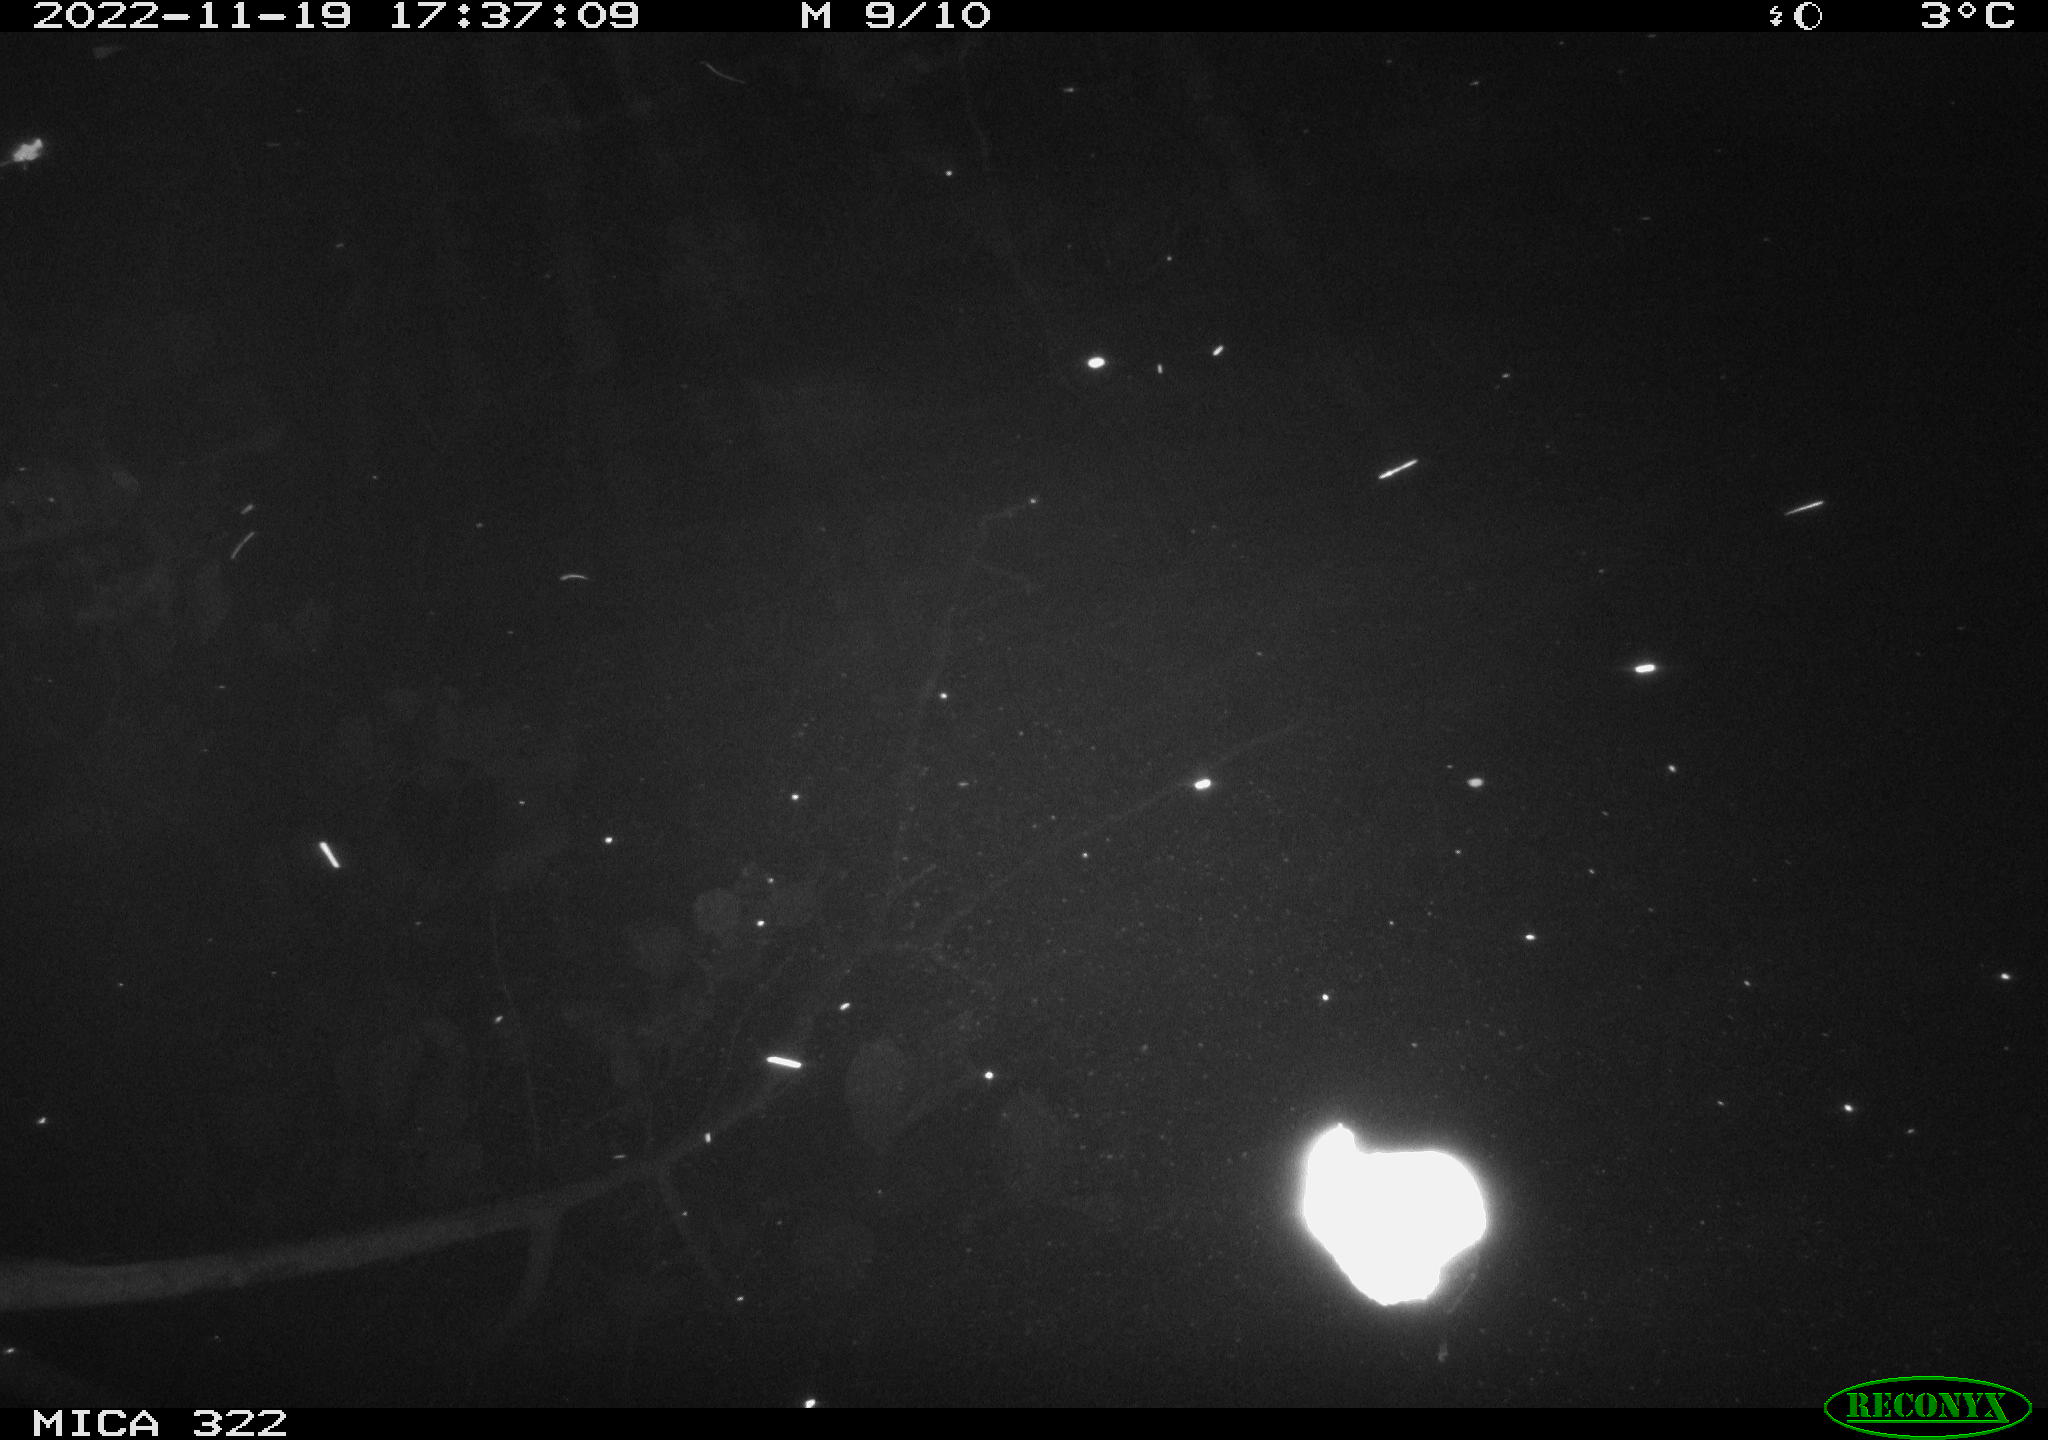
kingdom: Animalia
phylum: Chordata
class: Mammalia
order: Rodentia
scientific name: Rodentia
